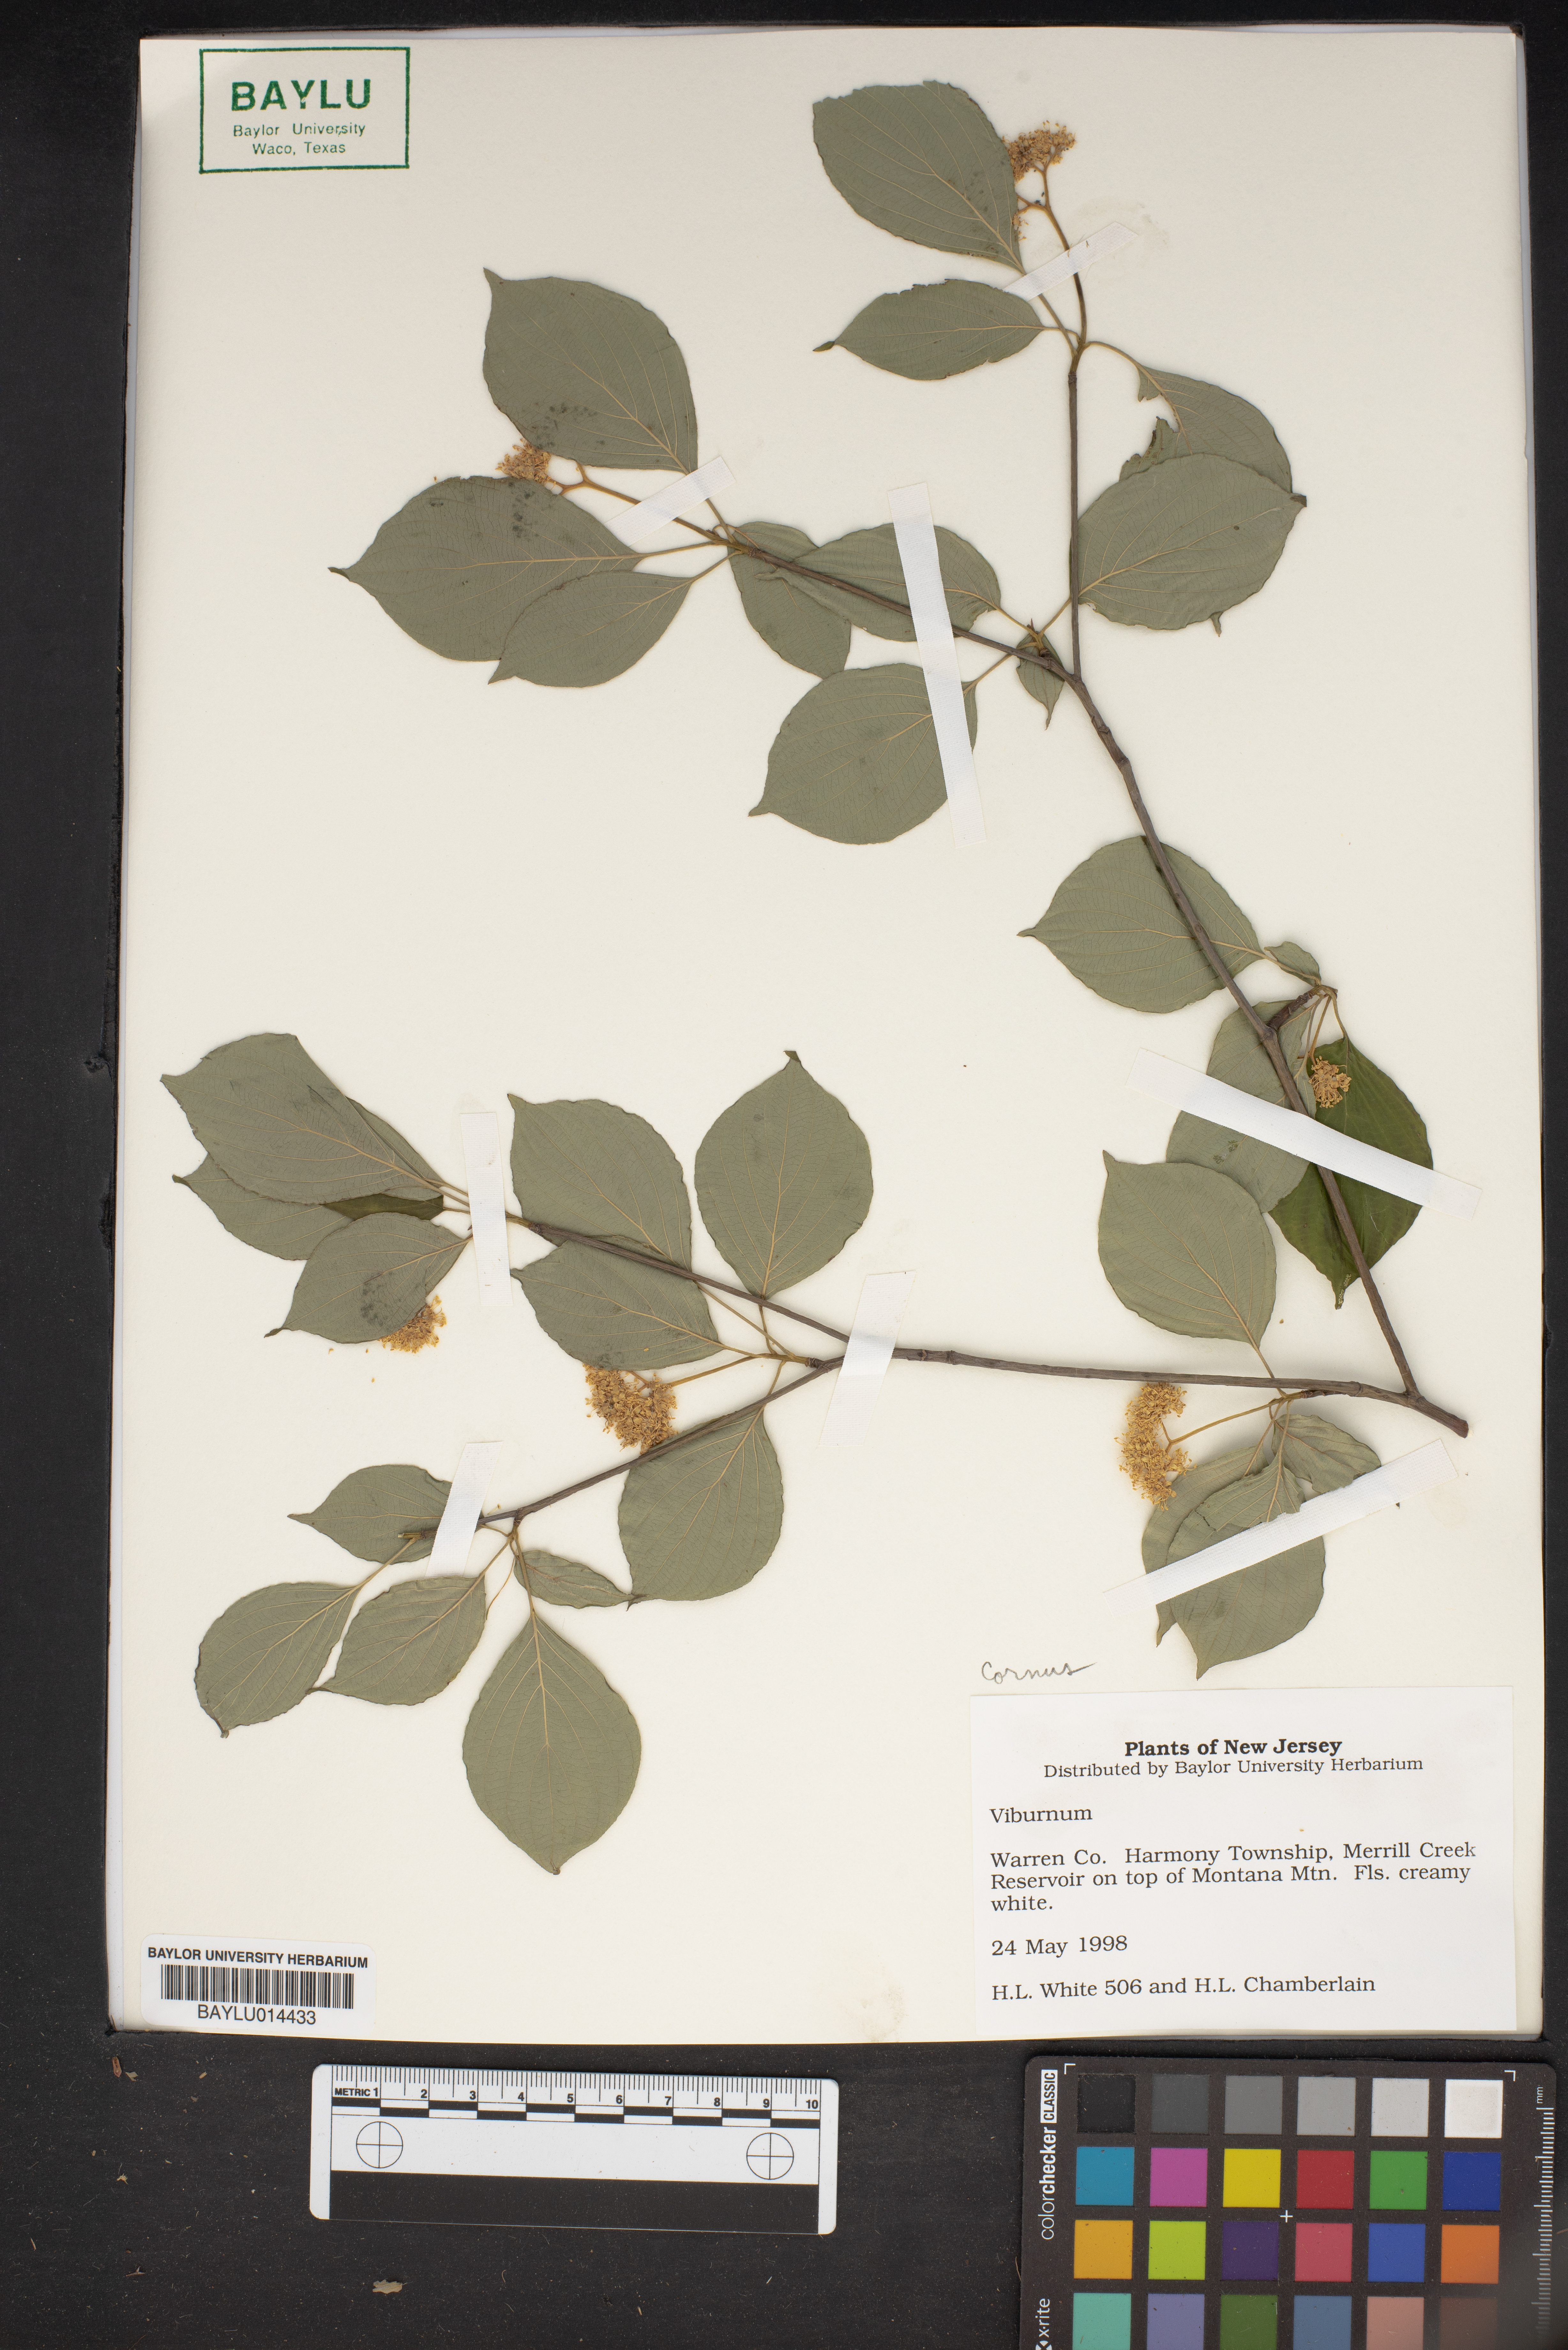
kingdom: Plantae
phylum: Tracheophyta
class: Magnoliopsida
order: Dipsacales
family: Viburnaceae
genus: Viburnum
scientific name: Viburnum
